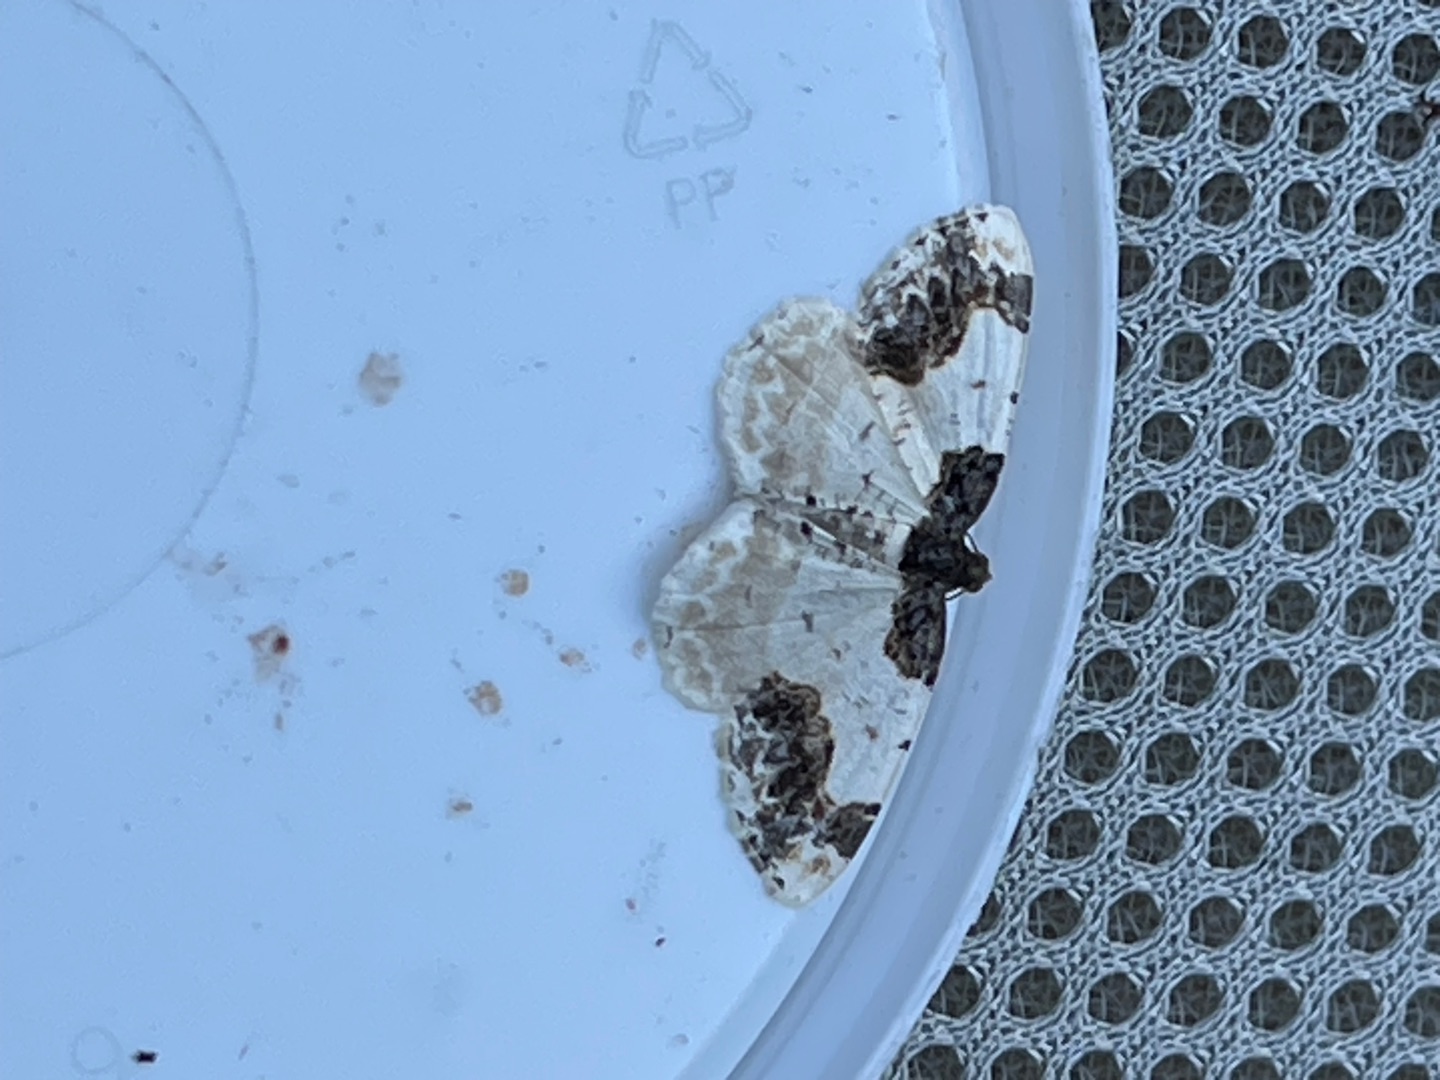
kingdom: Animalia
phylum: Arthropoda
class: Insecta
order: Lepidoptera
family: Geometridae
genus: Mesoleuca
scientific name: Mesoleuca albicillata
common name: Hindbær-bladmåler
